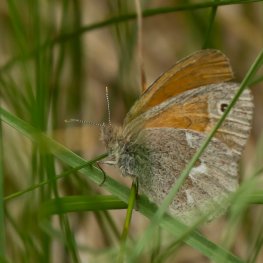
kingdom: Animalia
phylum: Arthropoda
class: Insecta
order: Lepidoptera
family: Nymphalidae
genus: Coenonympha
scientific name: Coenonympha tullia
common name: Large Heath
